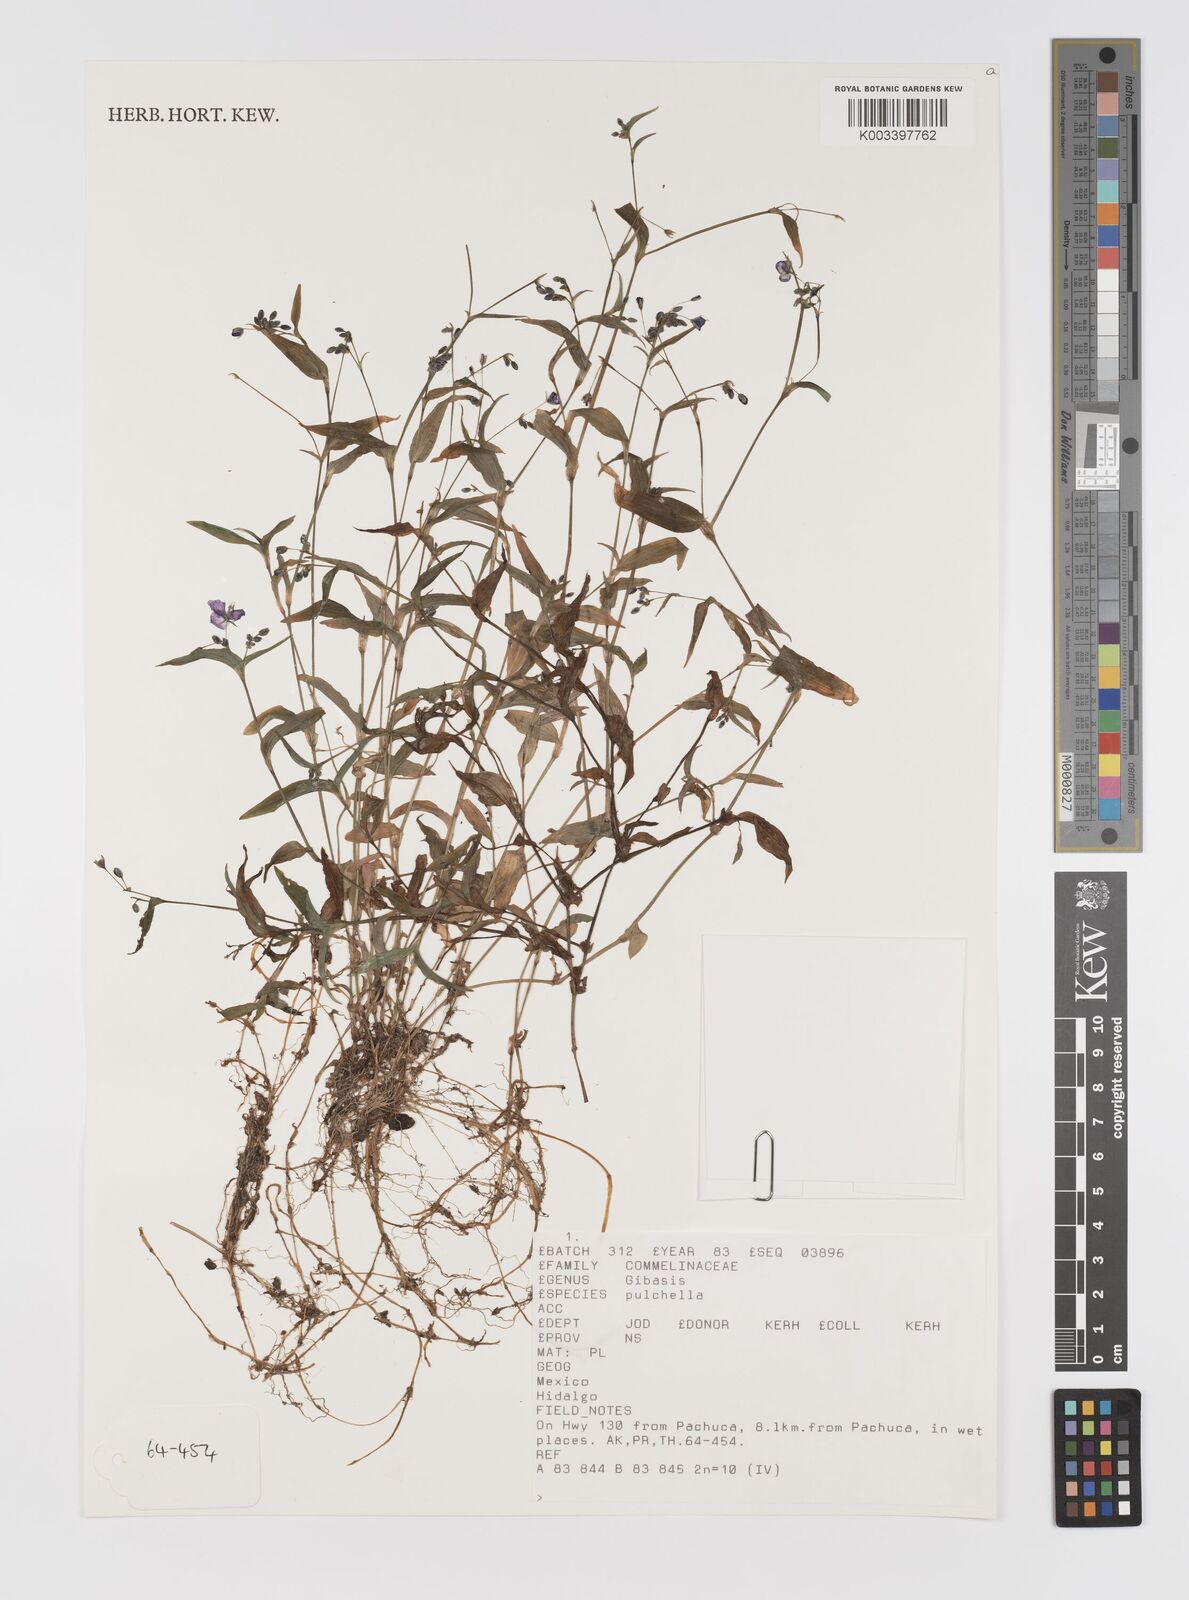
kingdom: Plantae
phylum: Tracheophyta
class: Liliopsida
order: Commelinales
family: Commelinaceae
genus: Gibasis
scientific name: Gibasis pulchella
